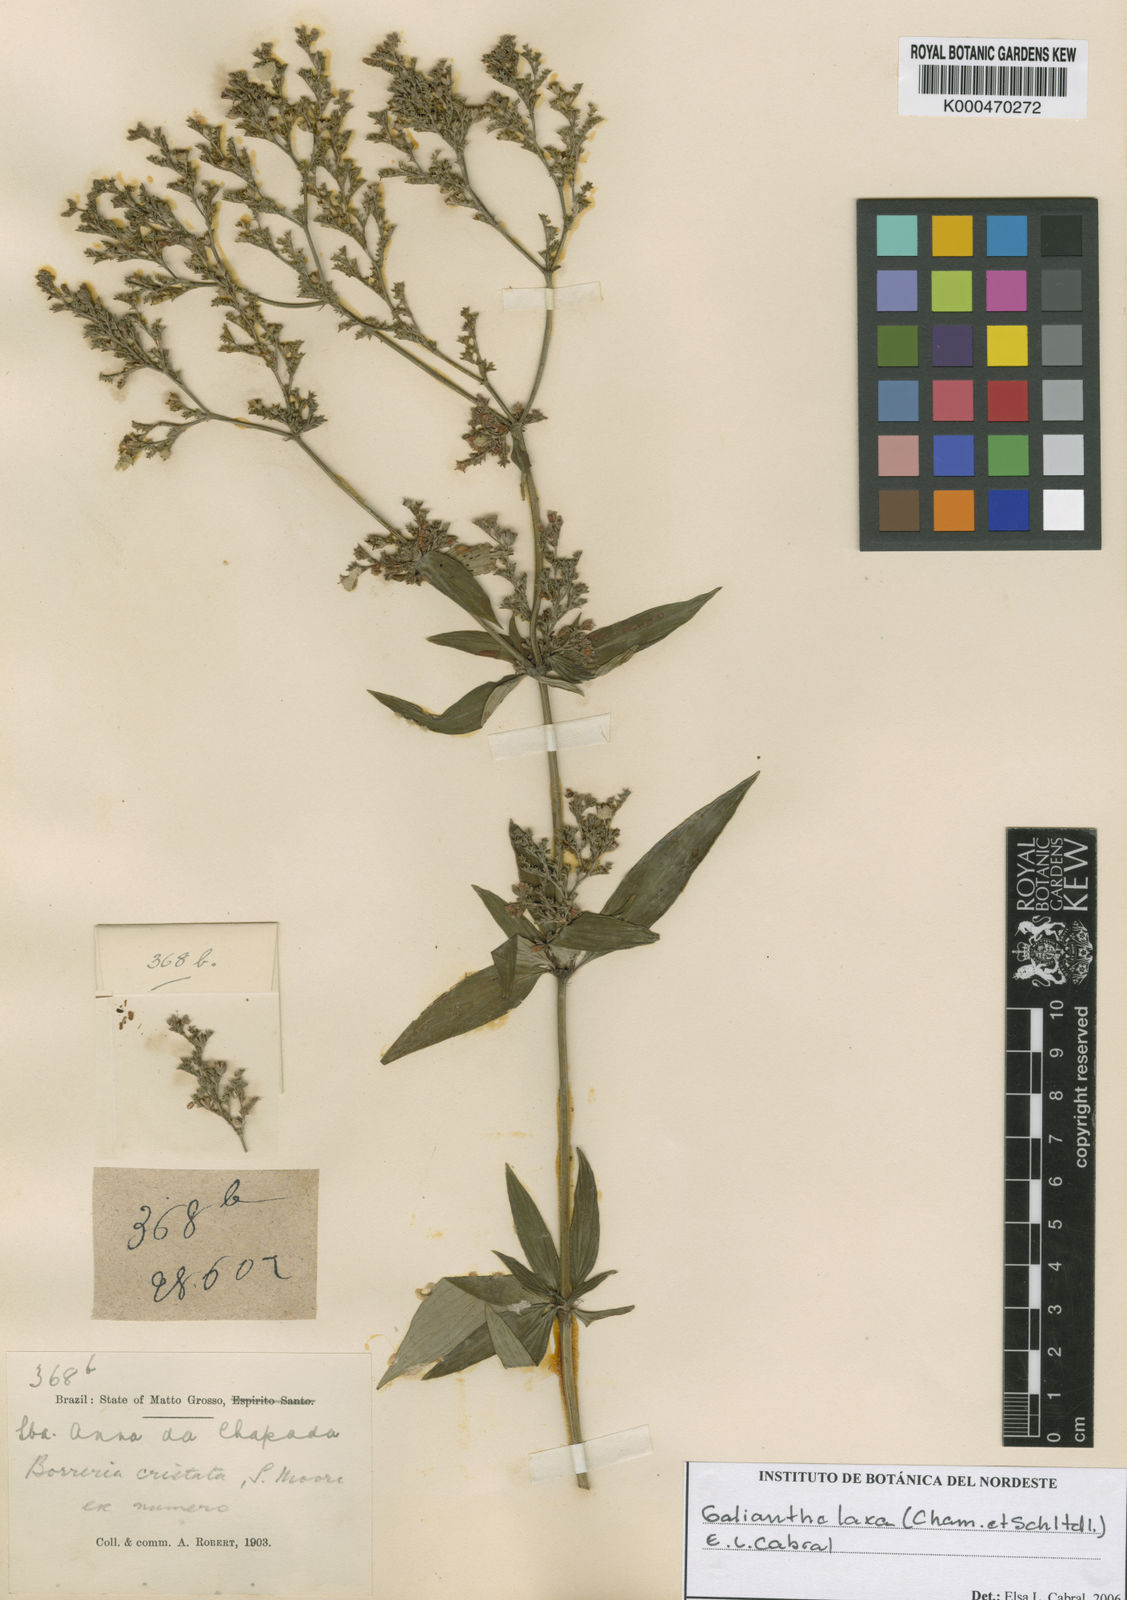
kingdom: Plantae
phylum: Tracheophyta
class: Magnoliopsida
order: Gentianales
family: Rubiaceae
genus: Galianthe
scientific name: Galianthe laxa
